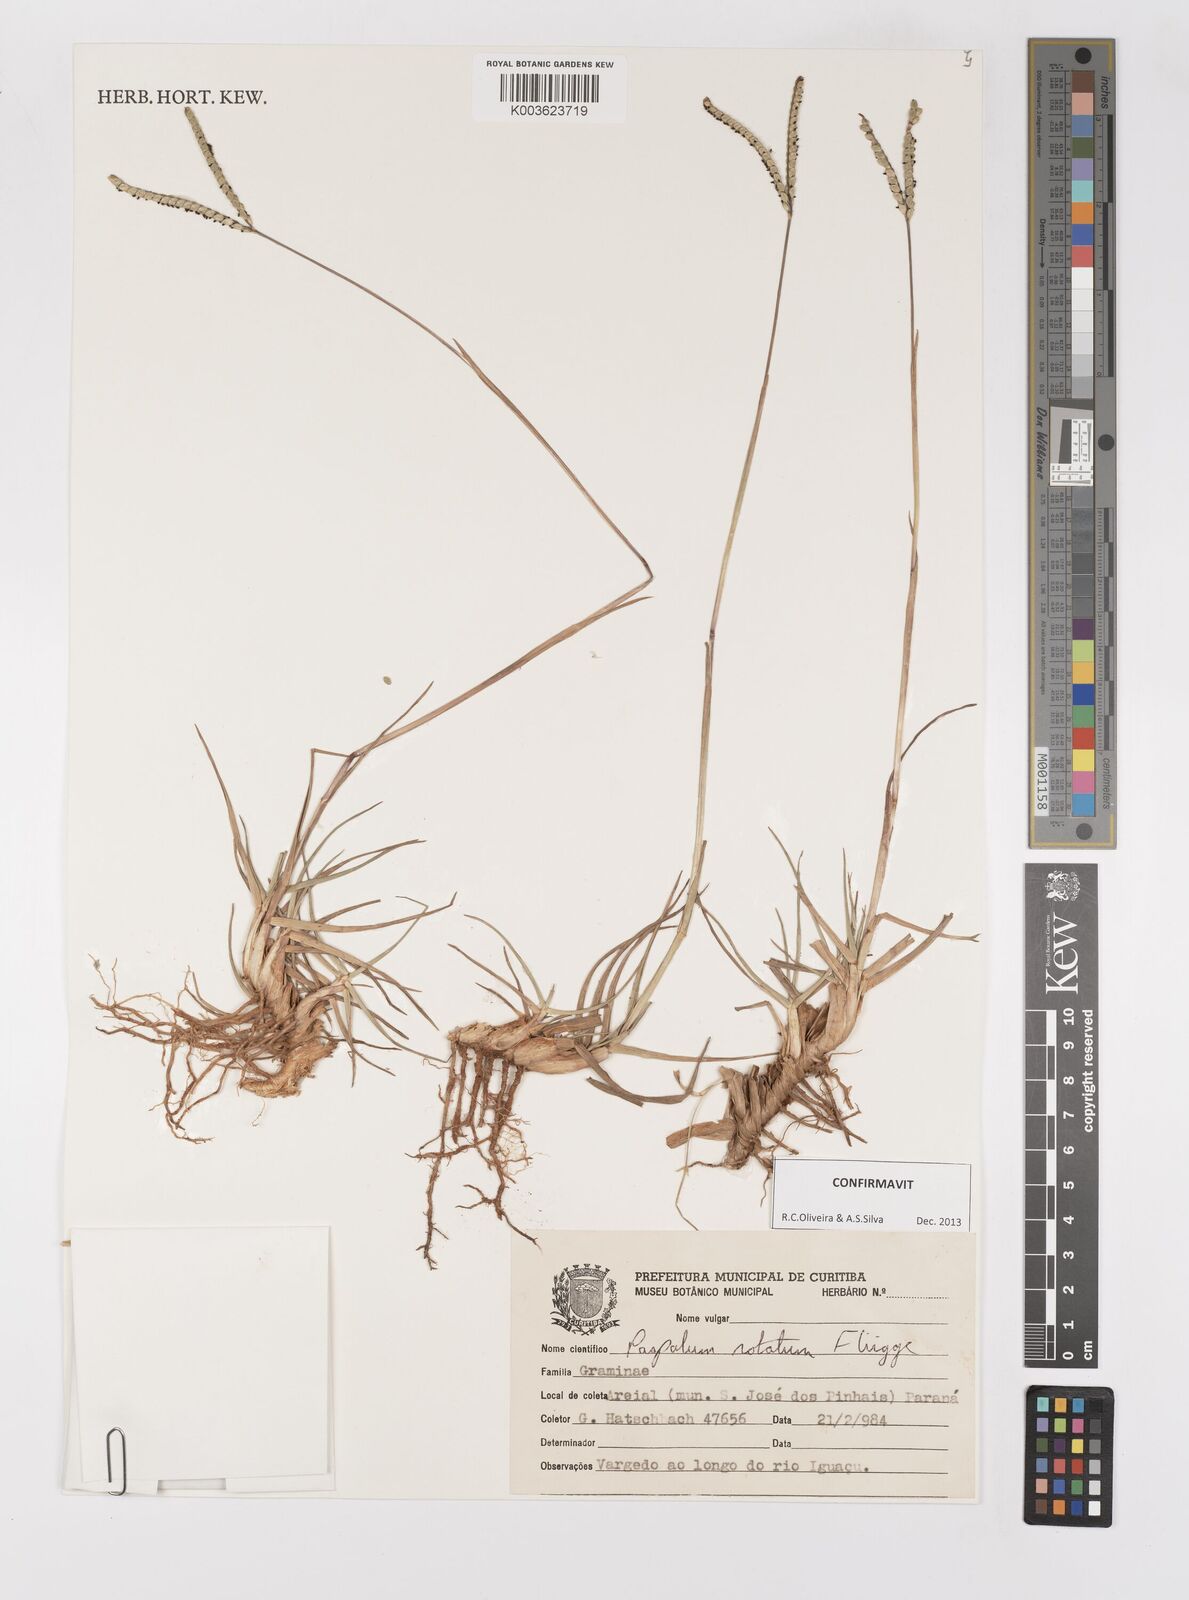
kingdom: Plantae
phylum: Tracheophyta
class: Liliopsida
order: Poales
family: Poaceae
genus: Paspalum
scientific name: Paspalum notatum
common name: Bahiagrass
